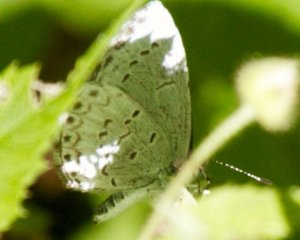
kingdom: Animalia
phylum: Arthropoda
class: Insecta
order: Lepidoptera
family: Lycaenidae
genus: Celastrina
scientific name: Celastrina
